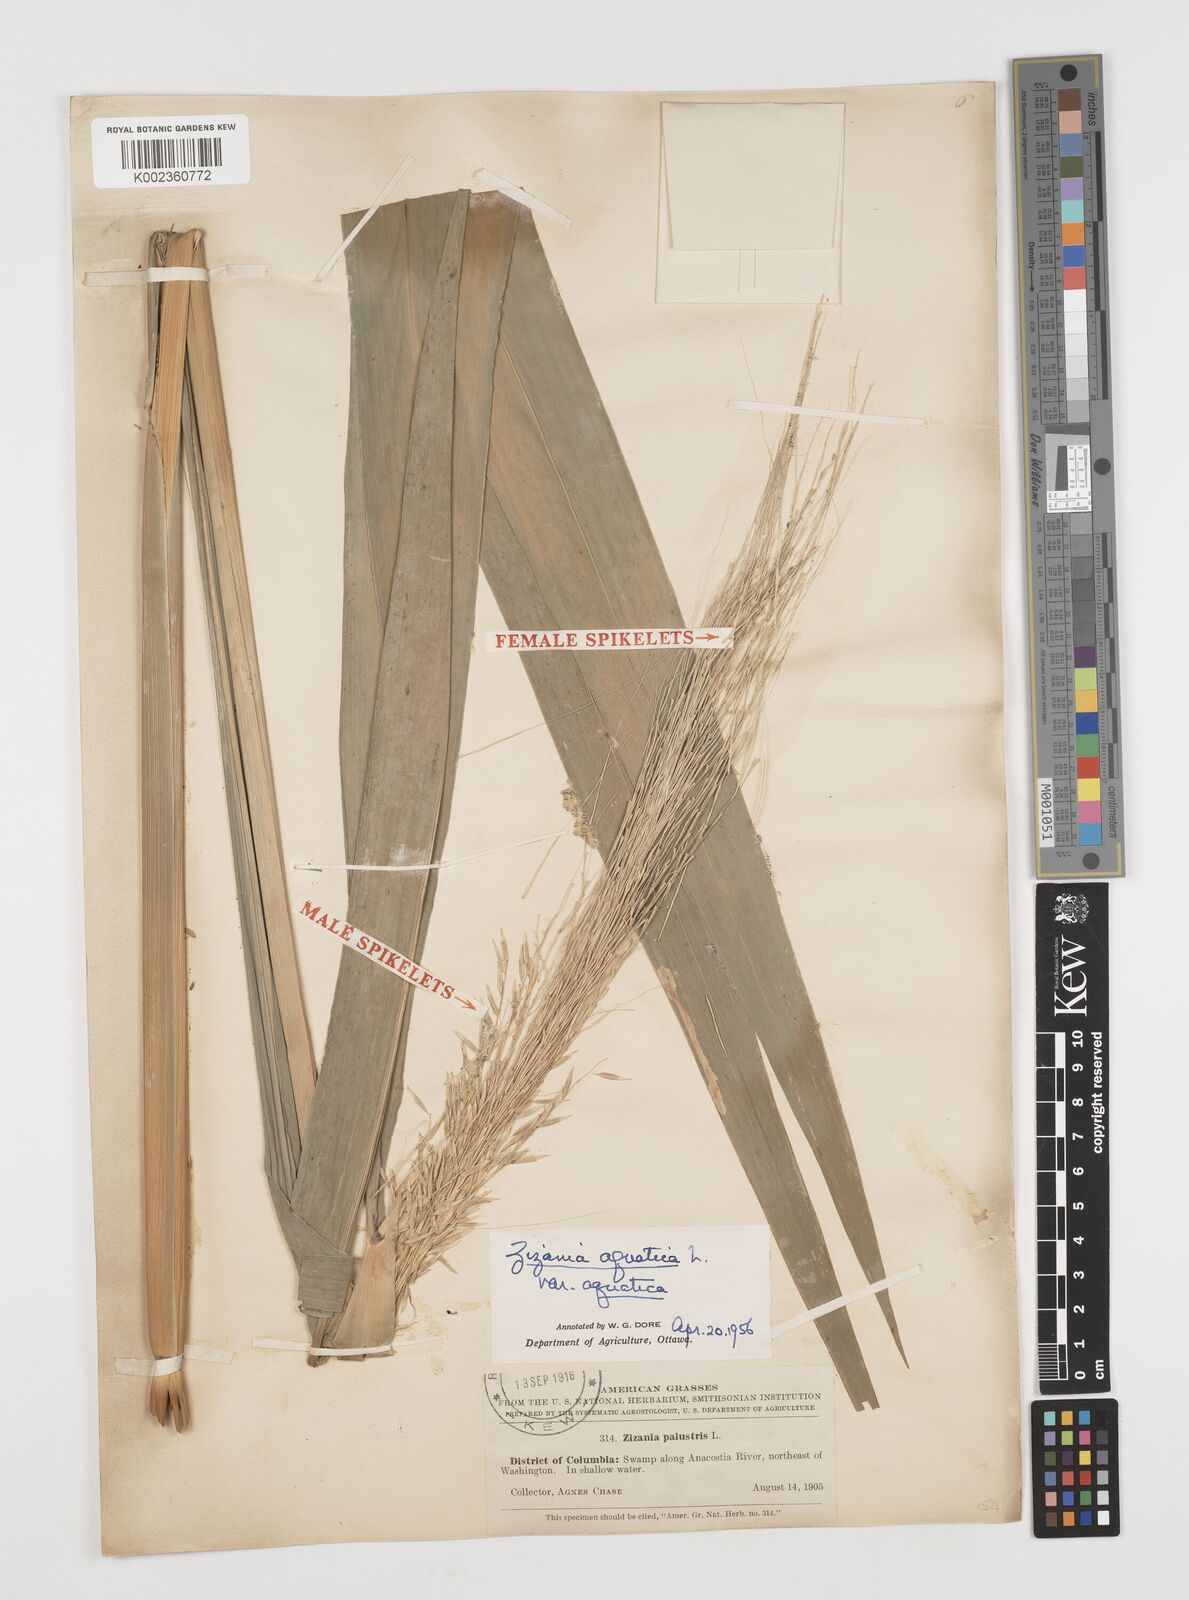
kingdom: Plantae
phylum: Tracheophyta
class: Liliopsida
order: Poales
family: Poaceae
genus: Zizania
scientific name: Zizania aquatica
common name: Annual wildrice
